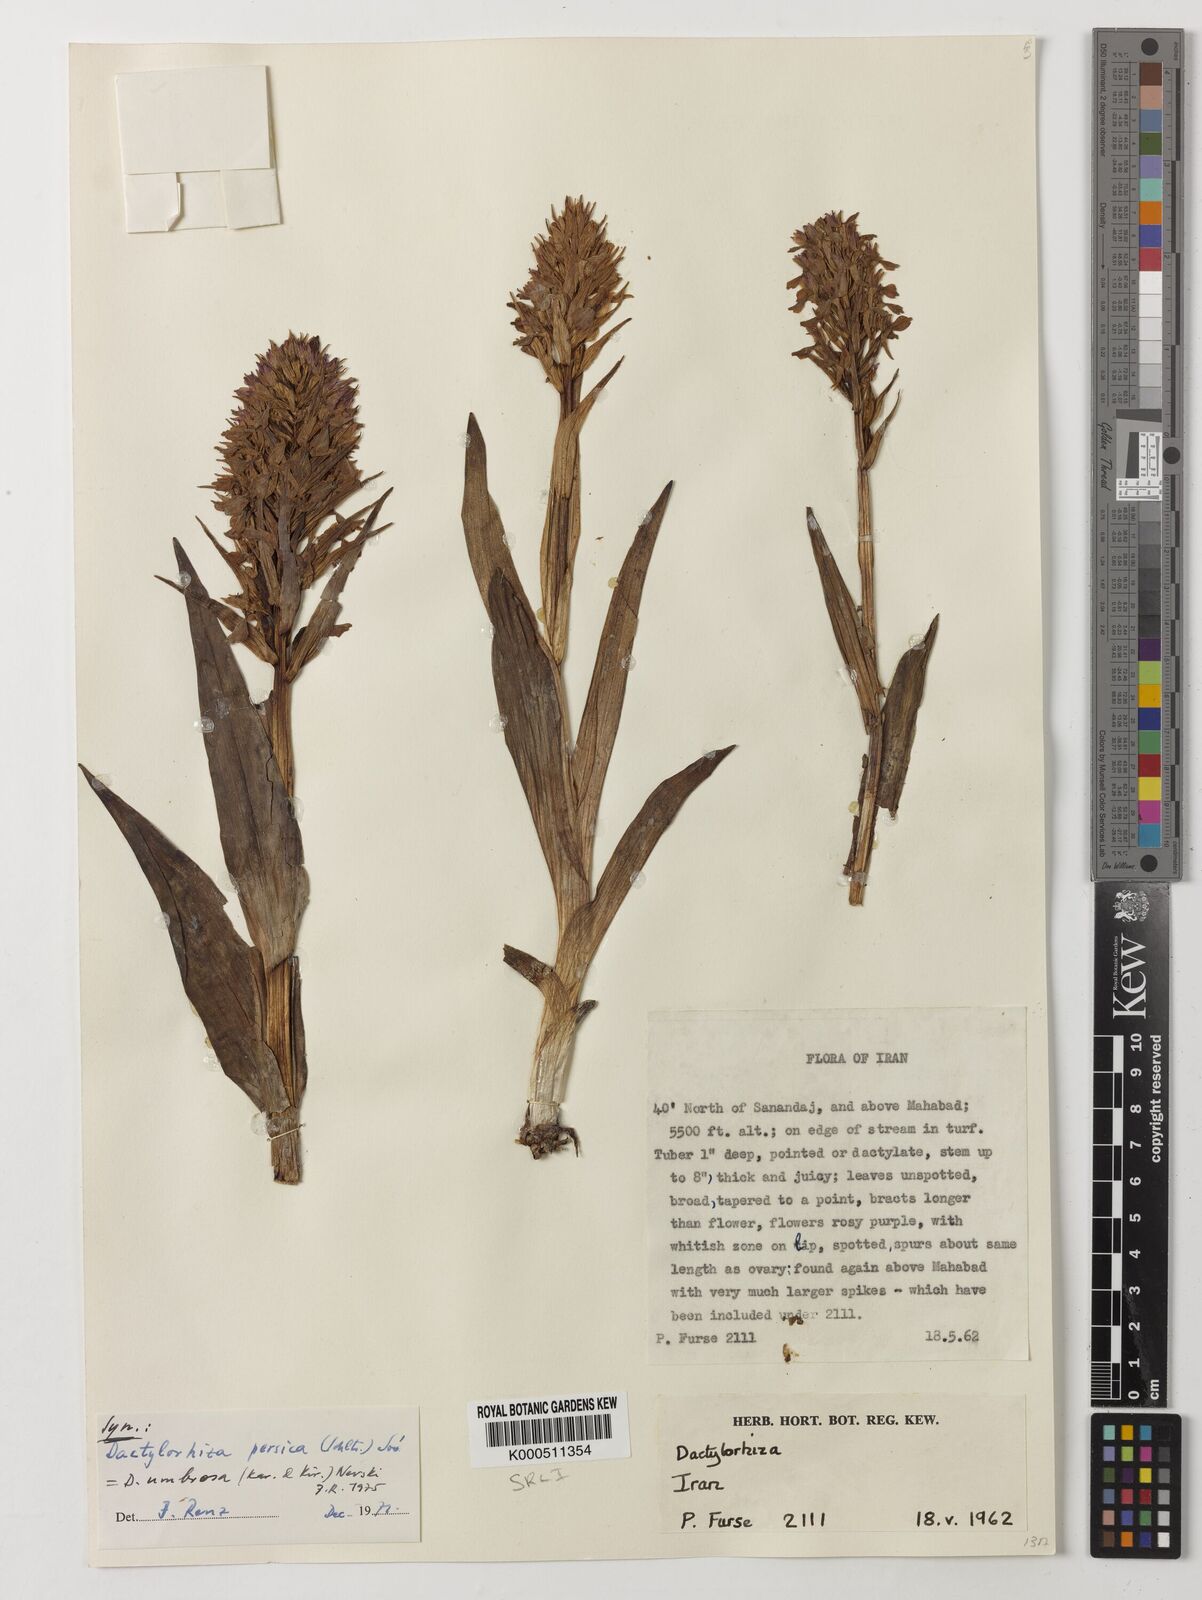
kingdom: Plantae
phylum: Tracheophyta
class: Liliopsida
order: Asparagales
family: Orchidaceae
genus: Dactylorhiza
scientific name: Dactylorhiza
